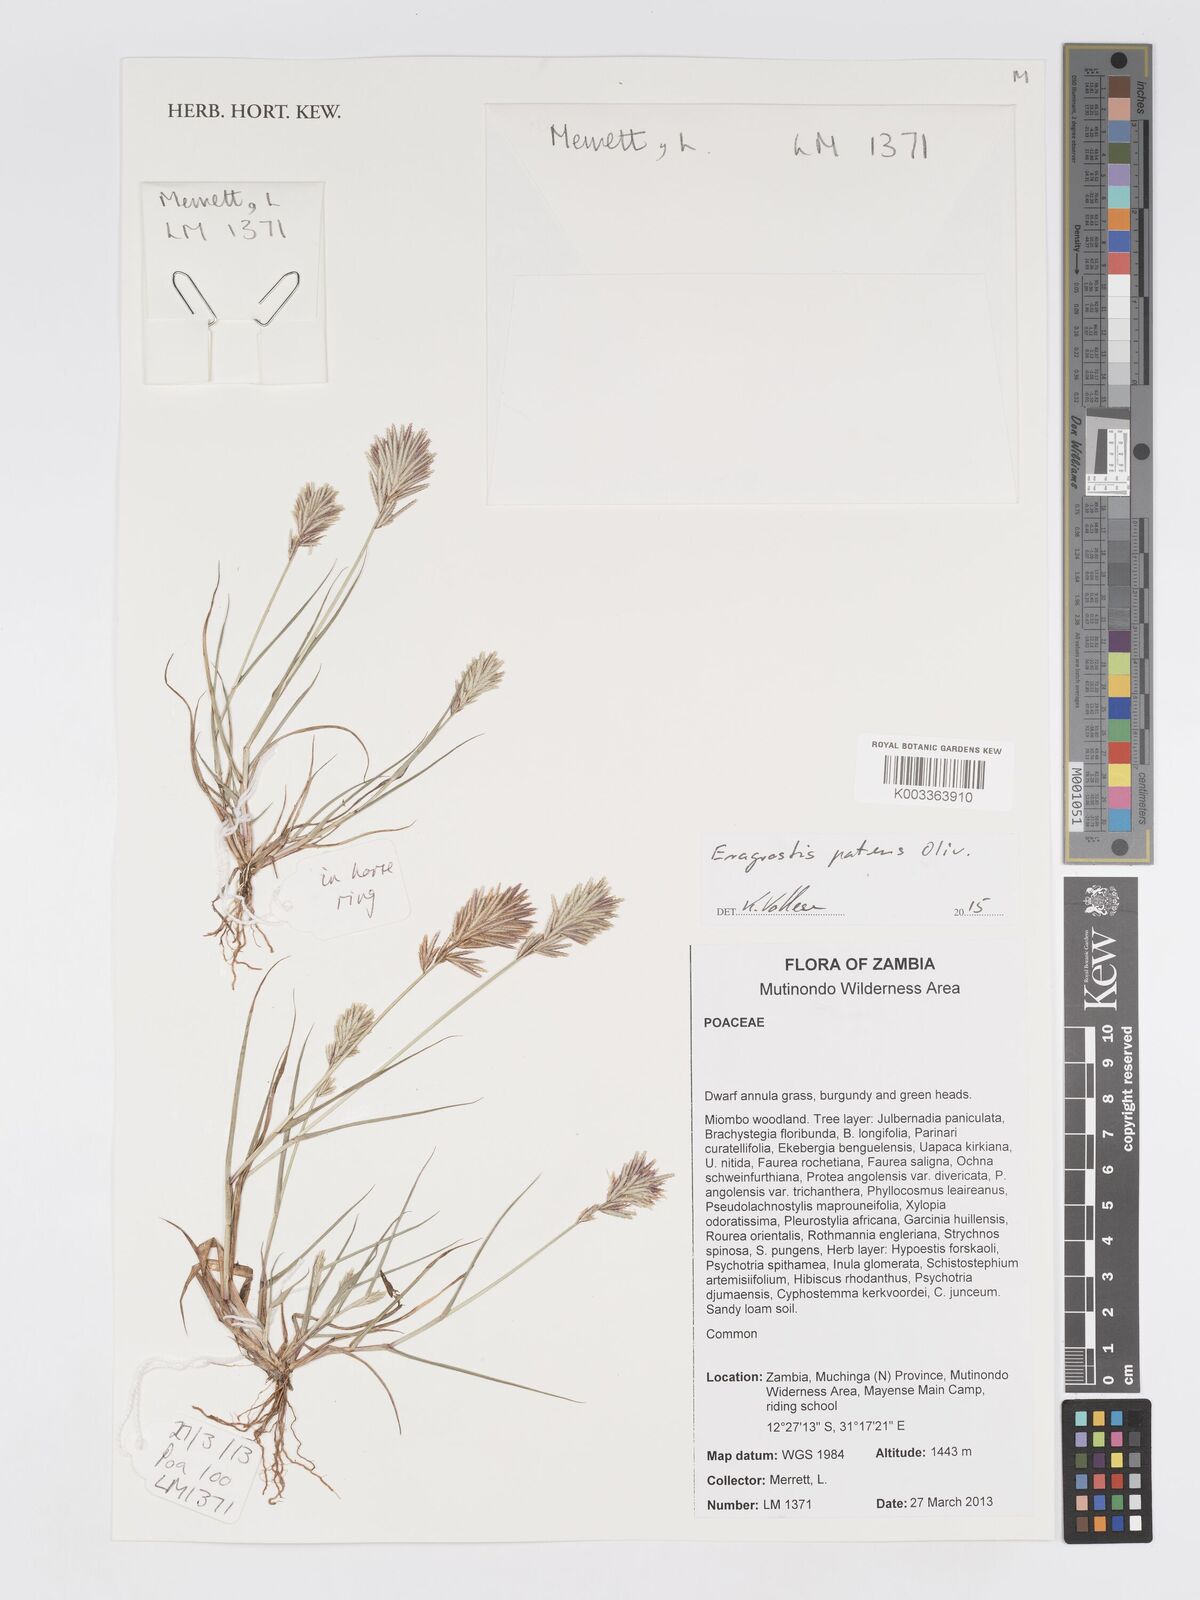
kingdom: Plantae
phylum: Tracheophyta
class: Liliopsida
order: Poales
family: Poaceae
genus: Eragrostis
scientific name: Eragrostis patens
